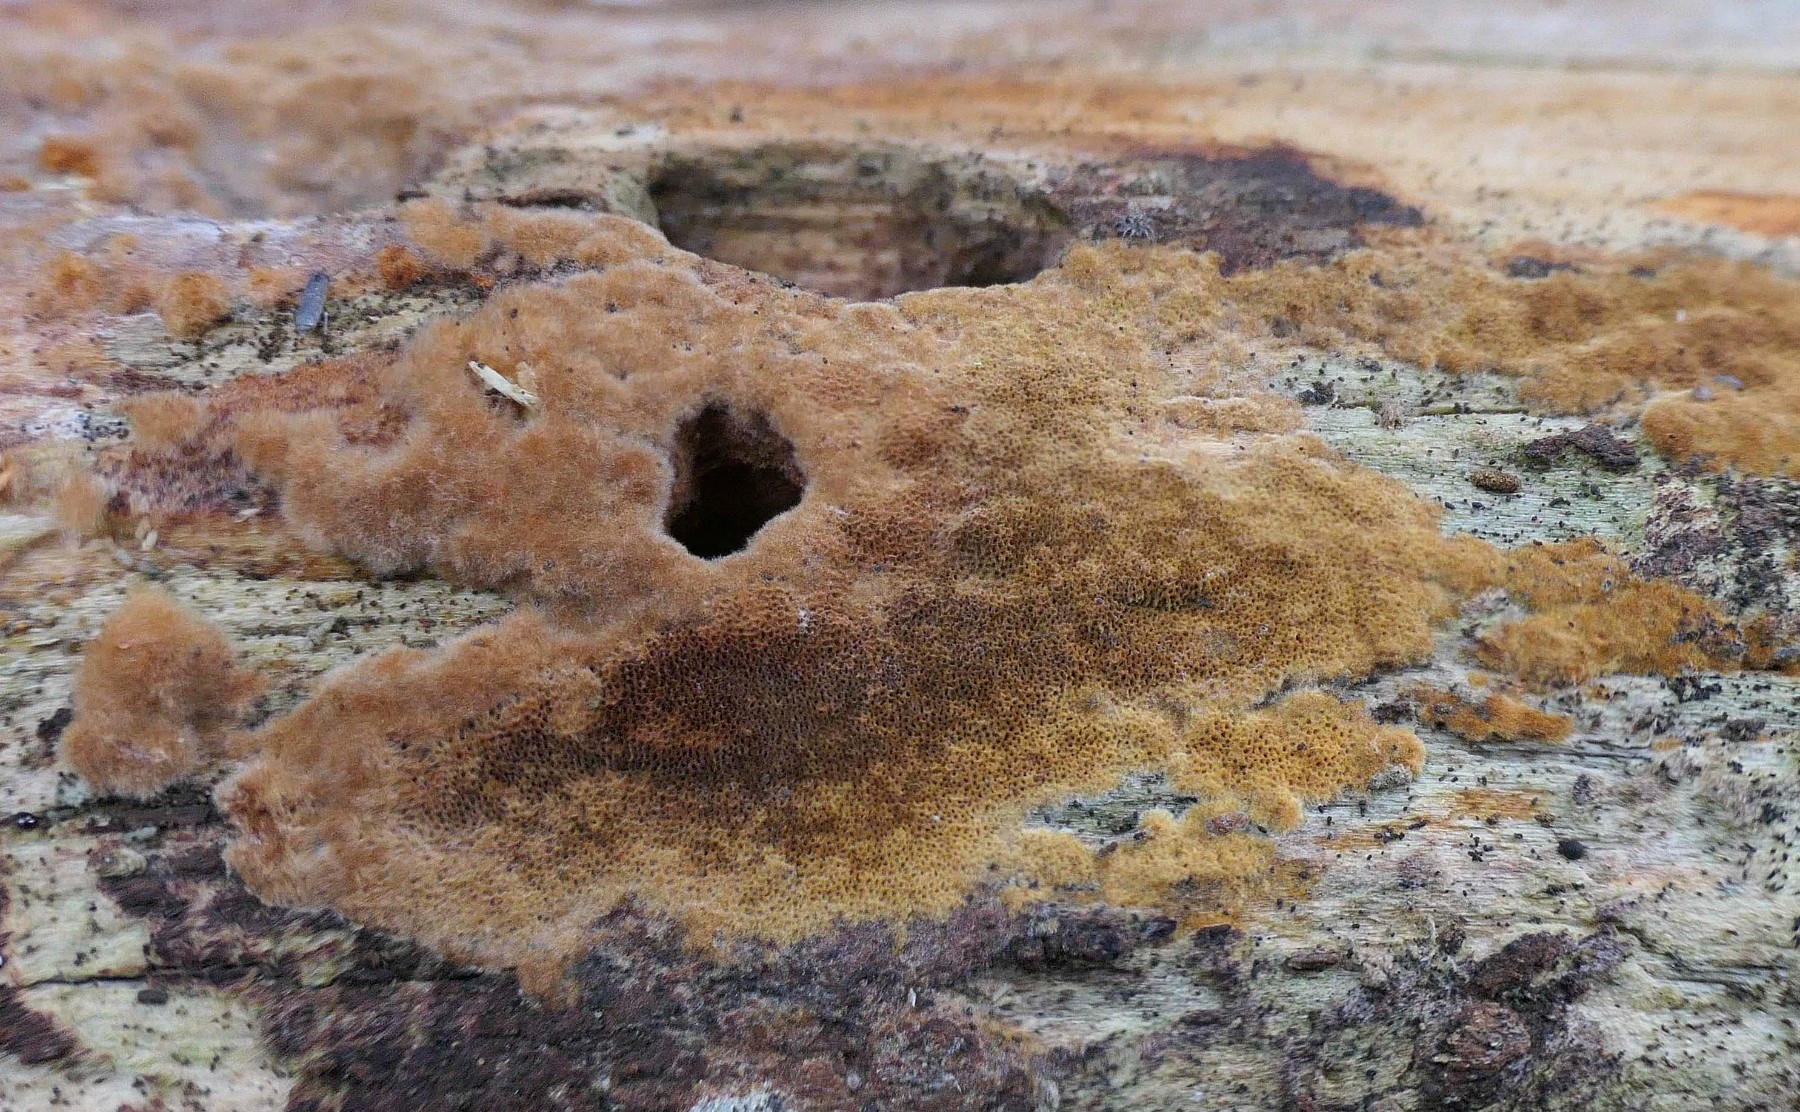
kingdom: Fungi
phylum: Basidiomycota
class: Agaricomycetes
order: Hymenochaetales
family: Hymenochaetaceae
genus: Fuscoporia
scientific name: Fuscoporia ferruginosa
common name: rustbrun ildporesvamp
